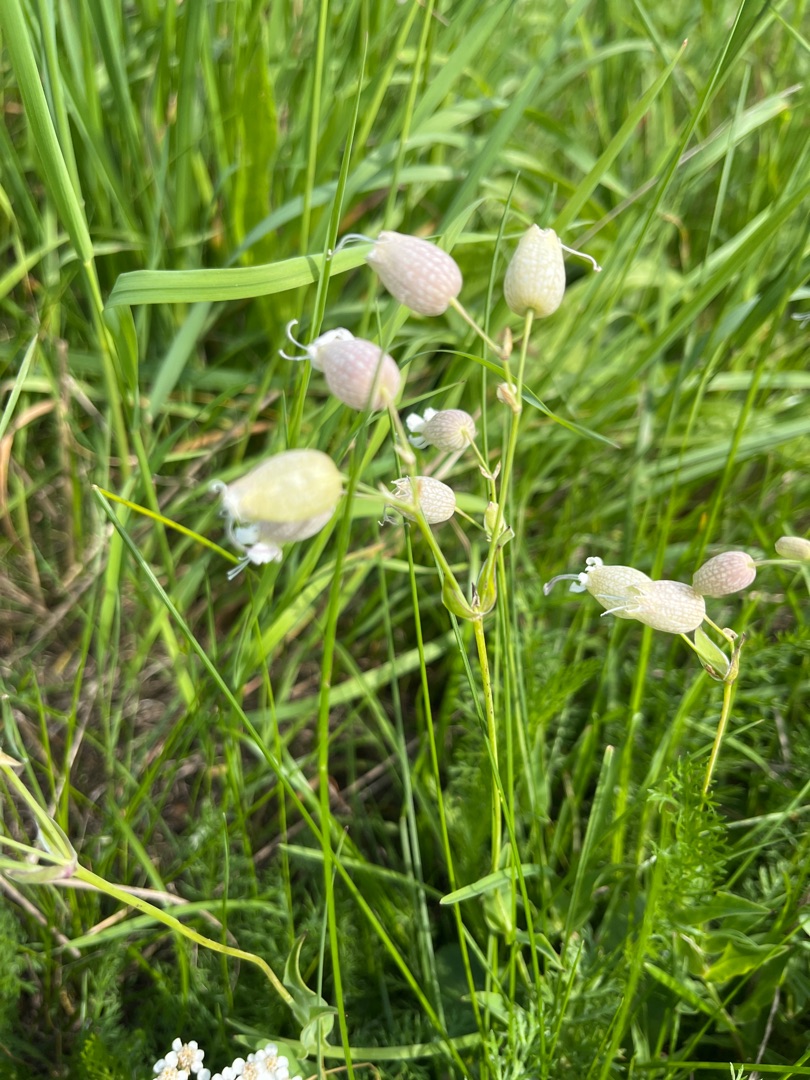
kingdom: Plantae
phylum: Tracheophyta
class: Magnoliopsida
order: Caryophyllales
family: Caryophyllaceae
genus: Silene
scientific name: Silene vulgaris
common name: Blæresmælde
